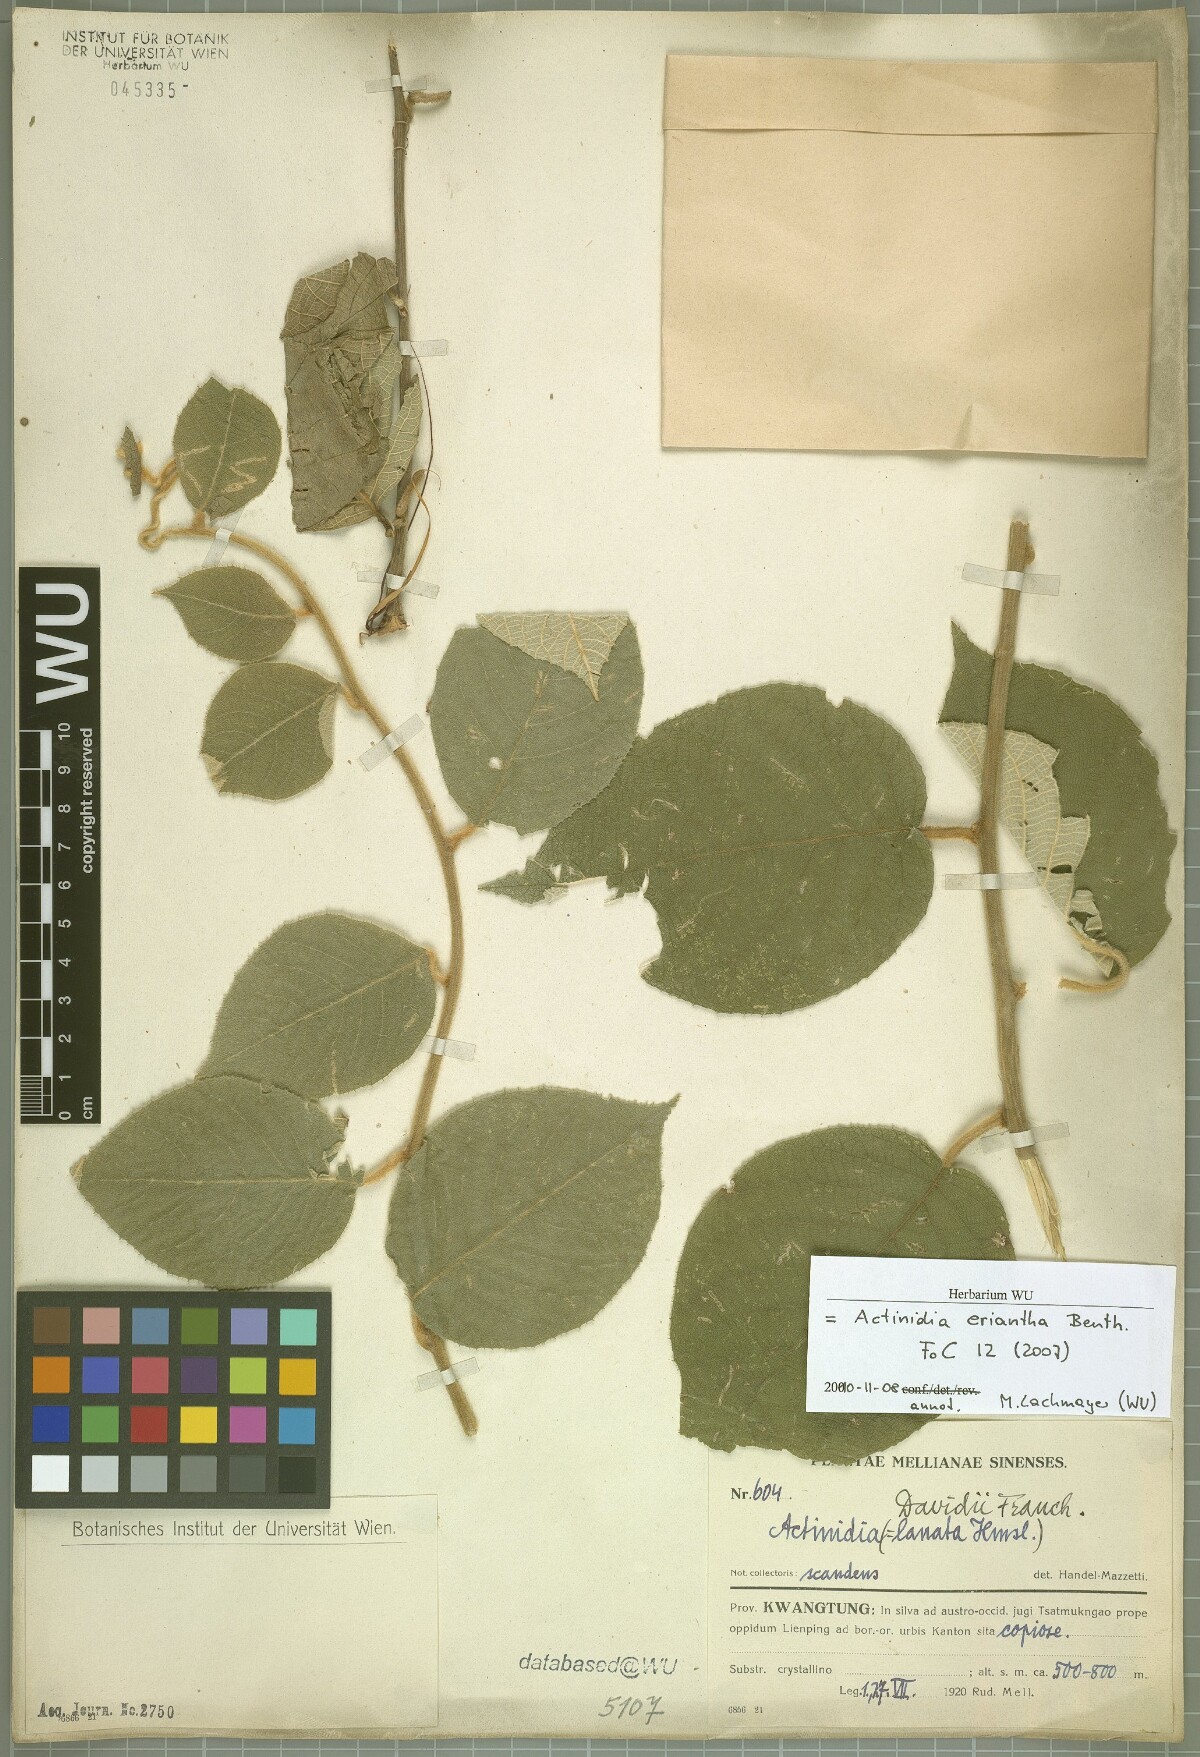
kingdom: Plantae
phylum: Tracheophyta
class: Magnoliopsida
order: Ericales
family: Actinidiaceae
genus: Actinidia
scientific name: Actinidia eriantha
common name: Velvetvine
